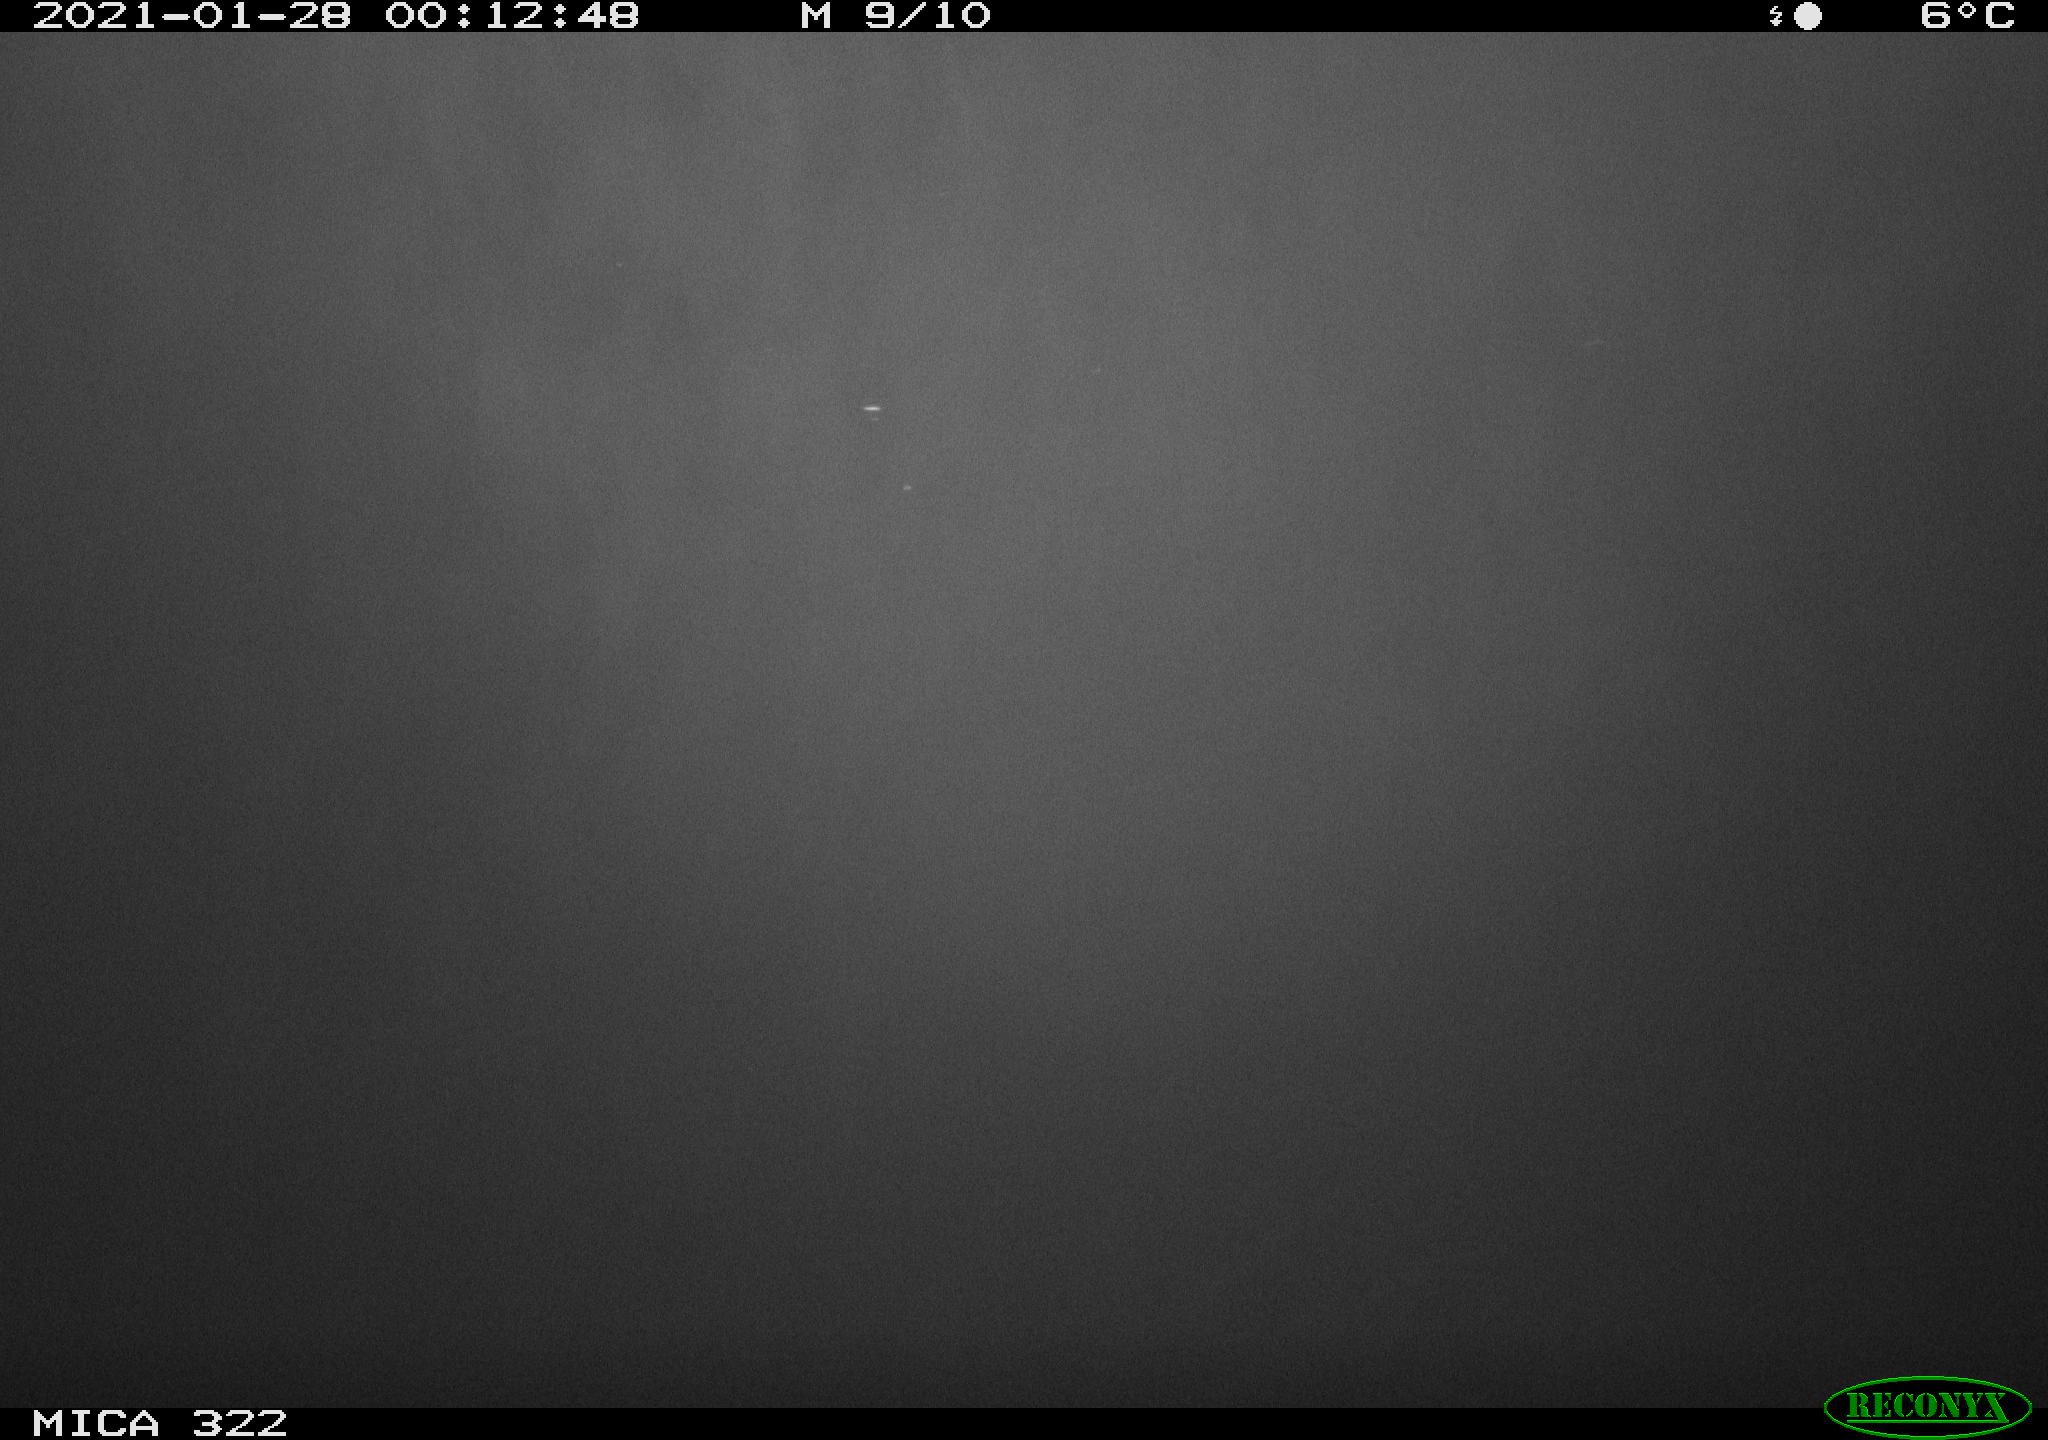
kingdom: Animalia
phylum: Chordata
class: Aves
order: Anseriformes
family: Anatidae
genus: Anas
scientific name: Anas platyrhynchos
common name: Mallard
